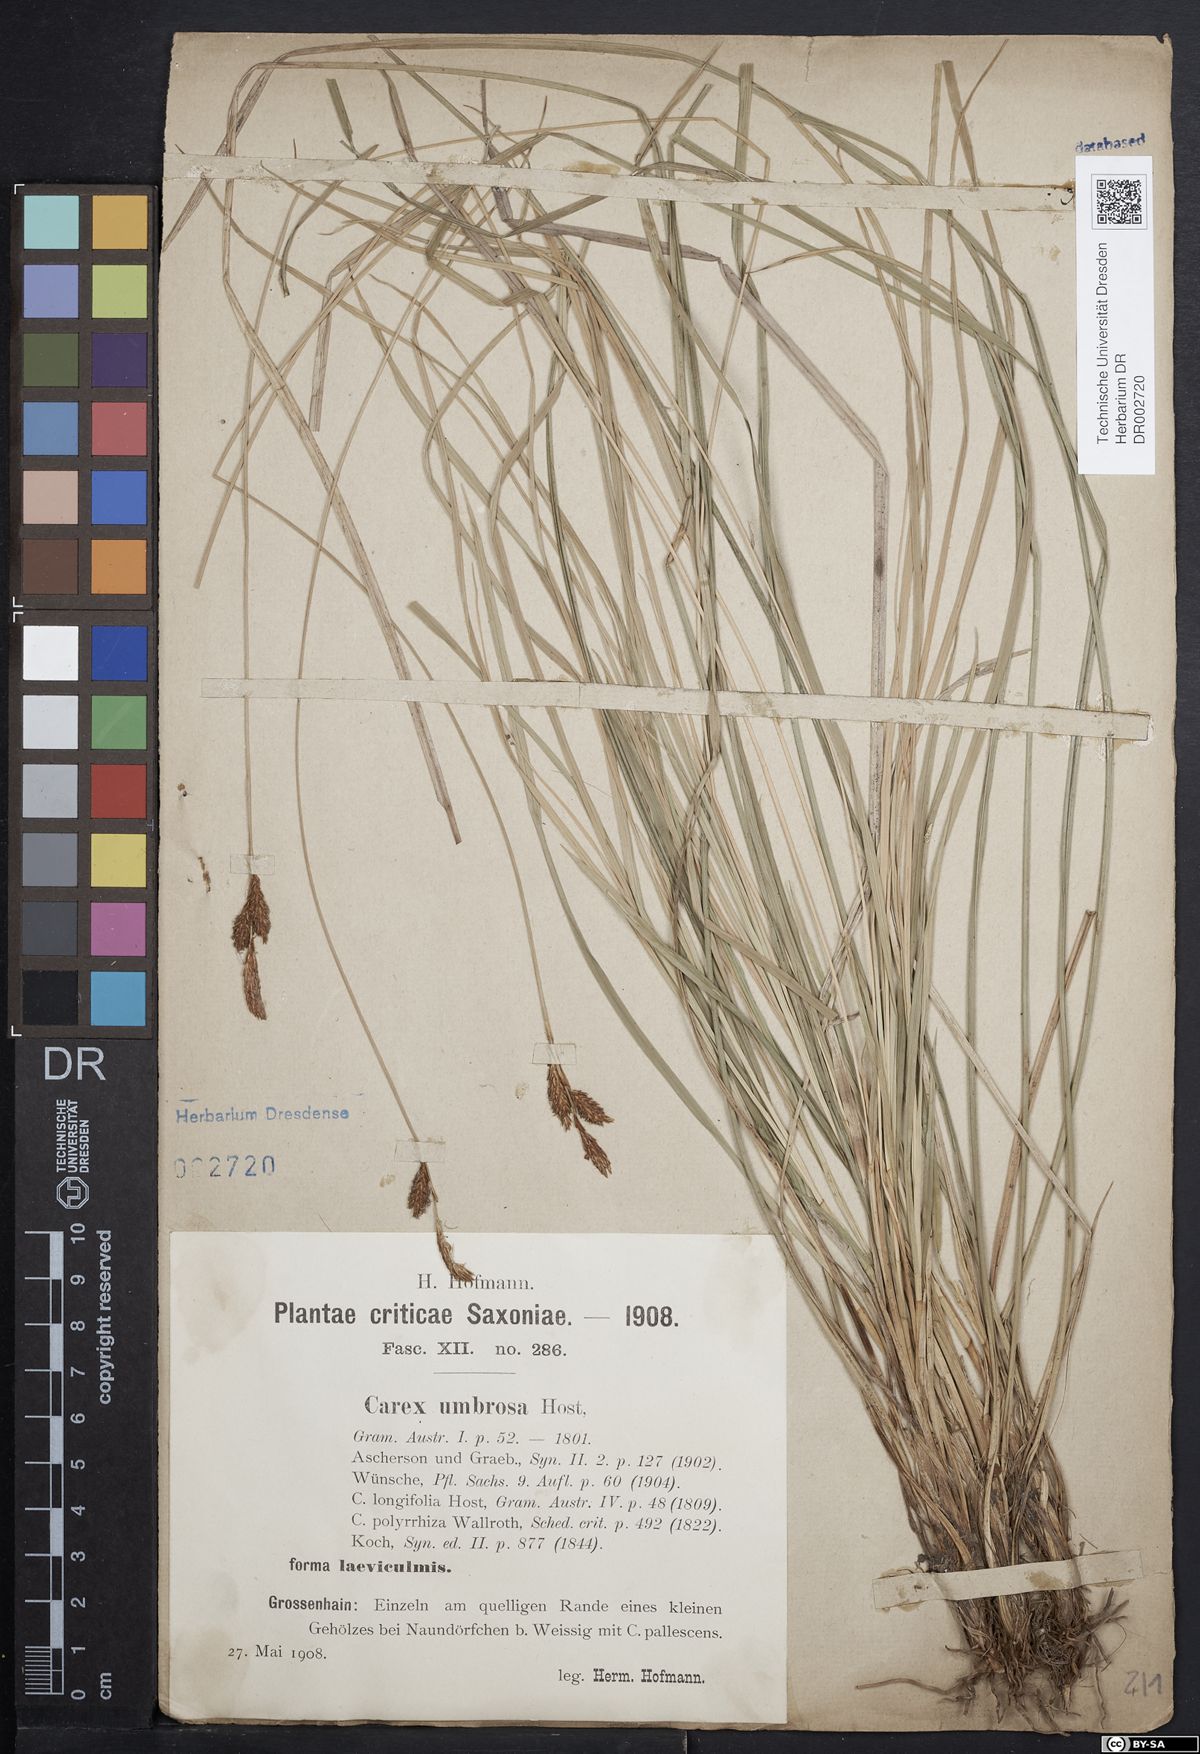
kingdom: Plantae
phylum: Tracheophyta
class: Liliopsida
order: Poales
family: Cyperaceae
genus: Carex
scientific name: Carex umbrosa
